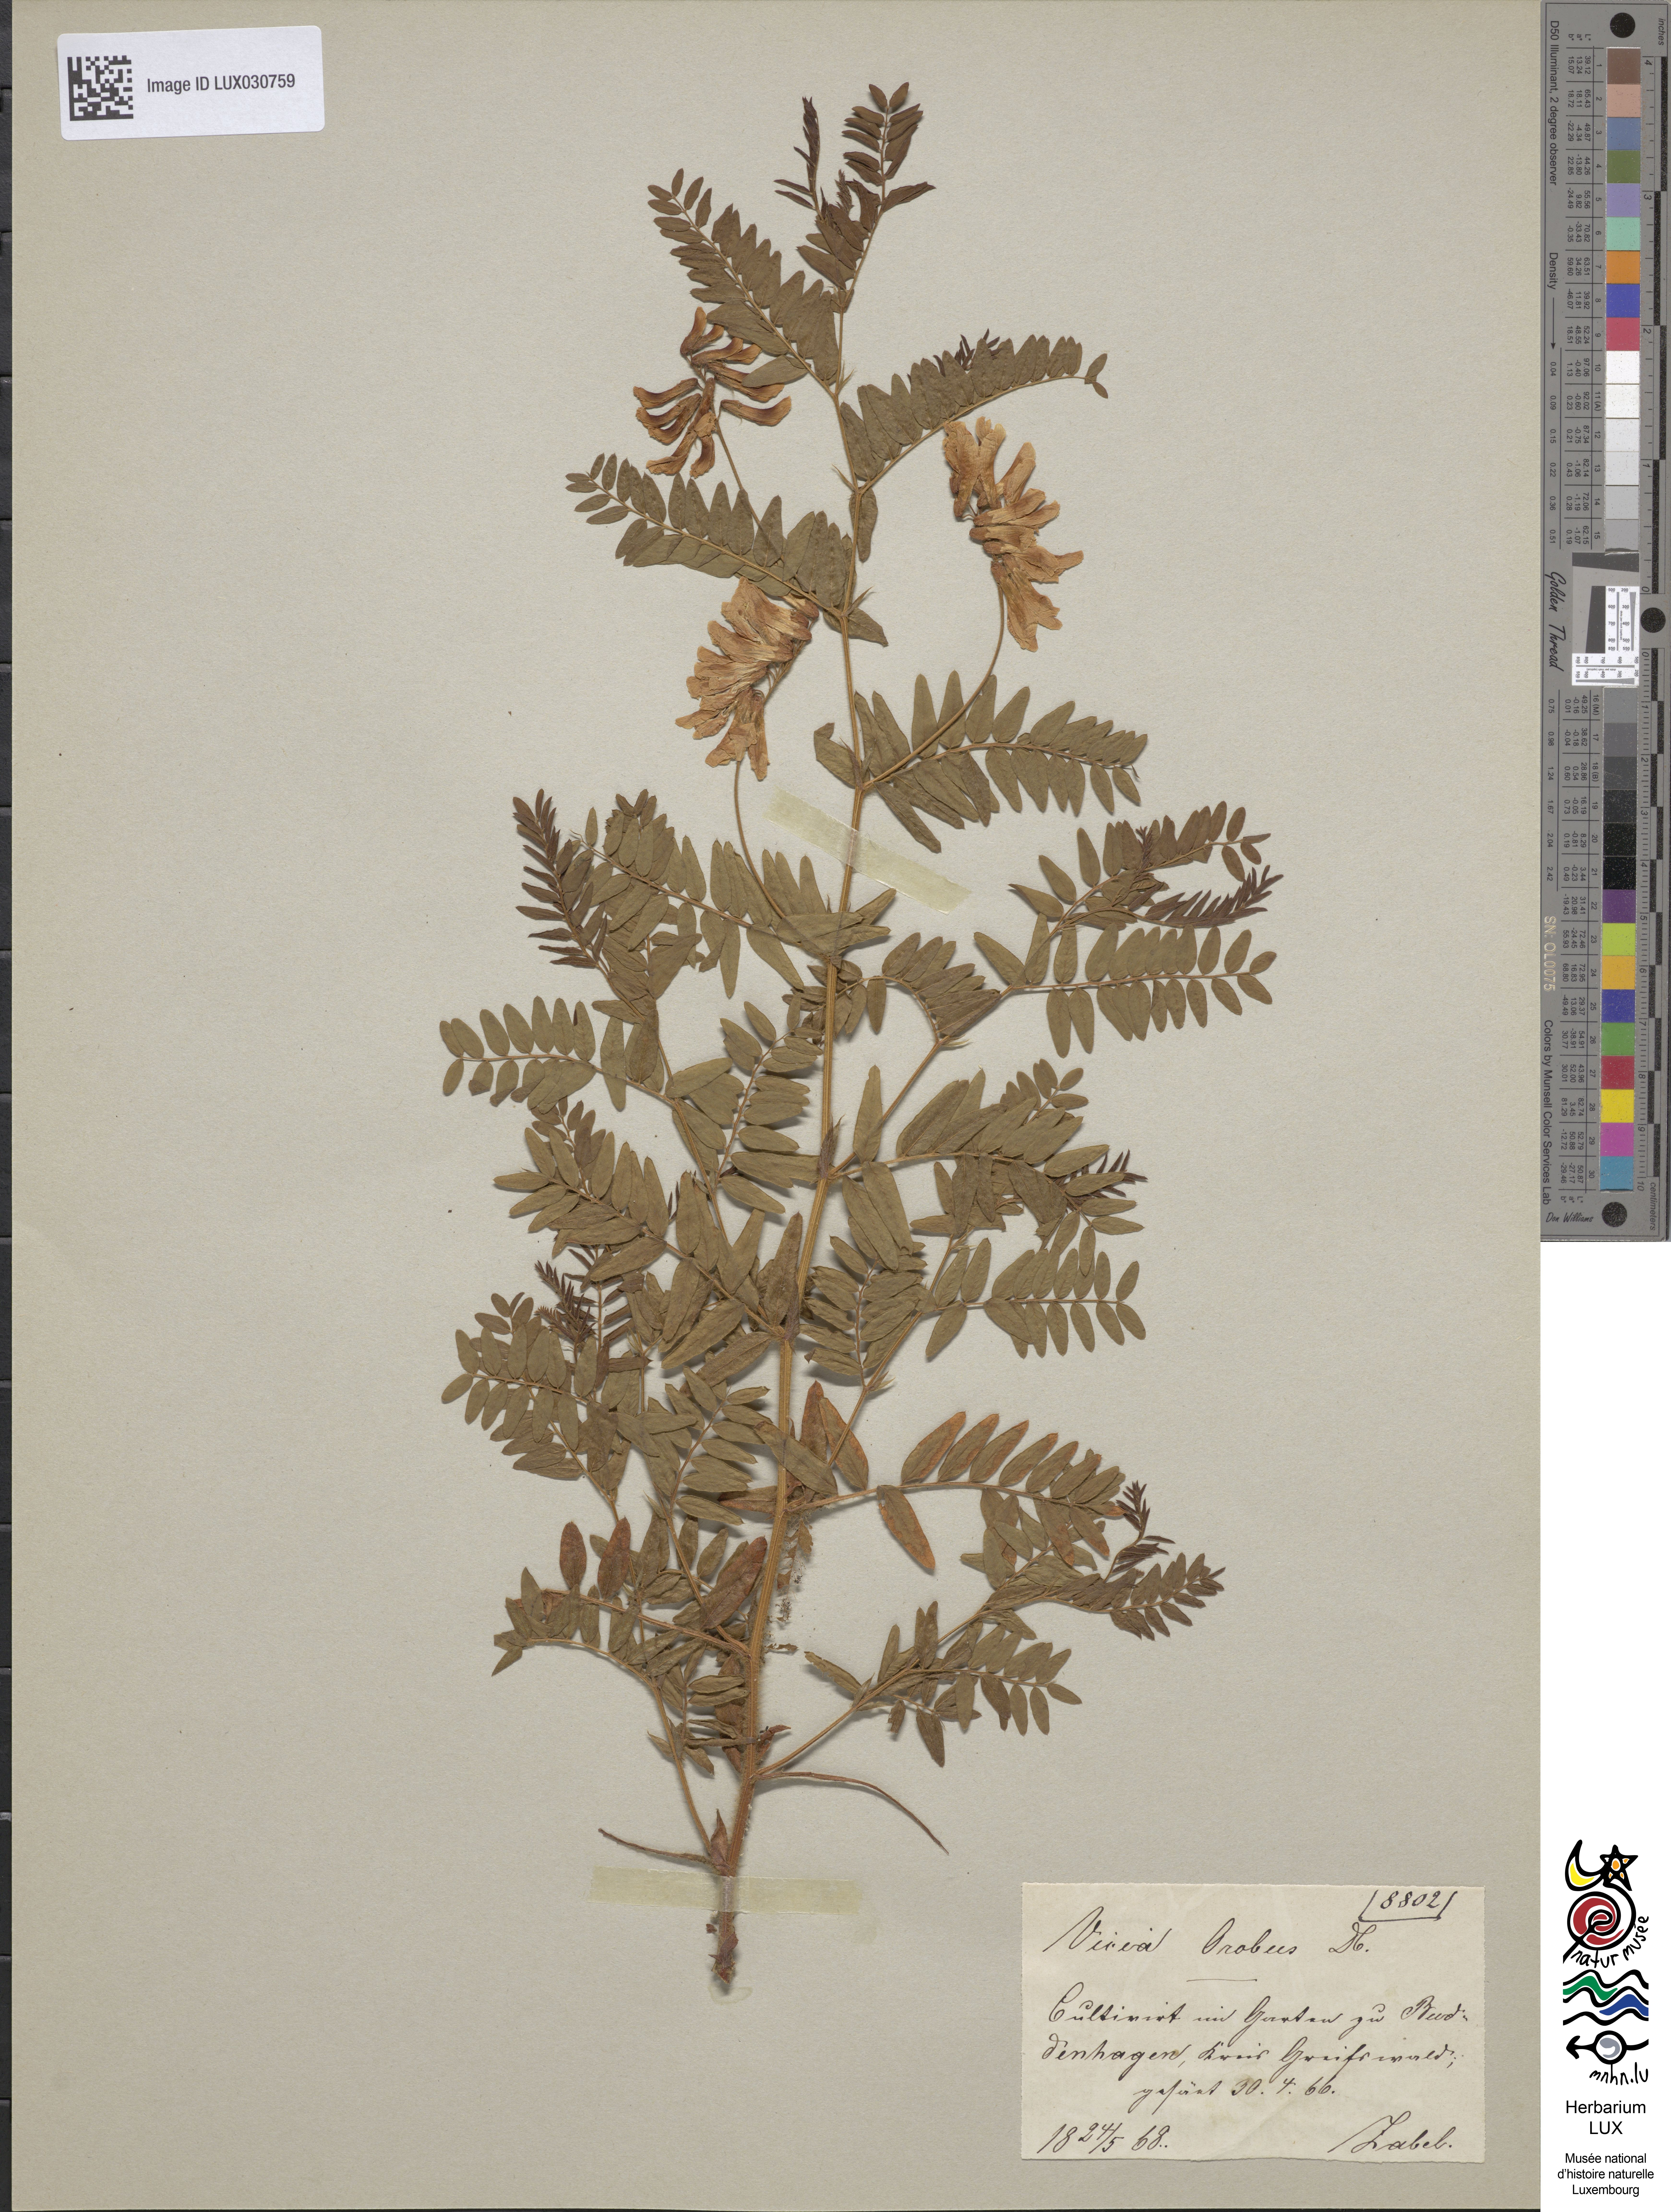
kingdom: Plantae
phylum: Tracheophyta
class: Magnoliopsida
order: Fabales
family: Fabaceae
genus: Vicia
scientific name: Vicia orobus
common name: Wood bitter-vetch
